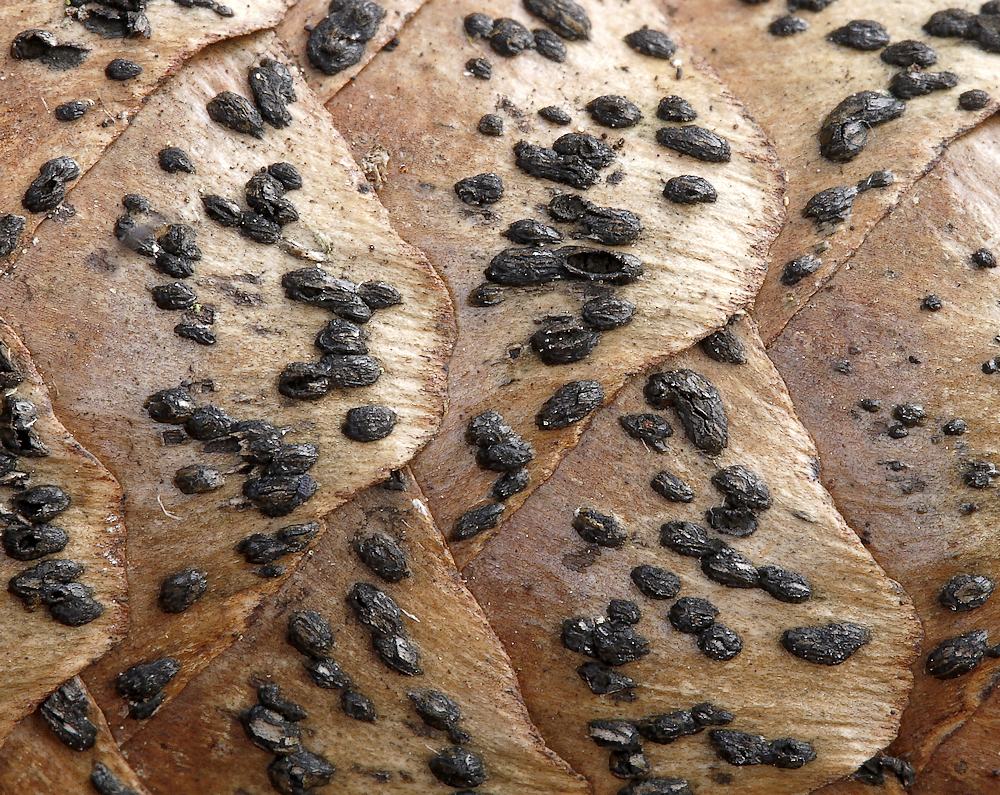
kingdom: Fungi
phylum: Ascomycota
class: Dothideomycetes
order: Pleosporales
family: Melanommataceae
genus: Phragmotrichum
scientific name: Phragmotrichum chailletii
